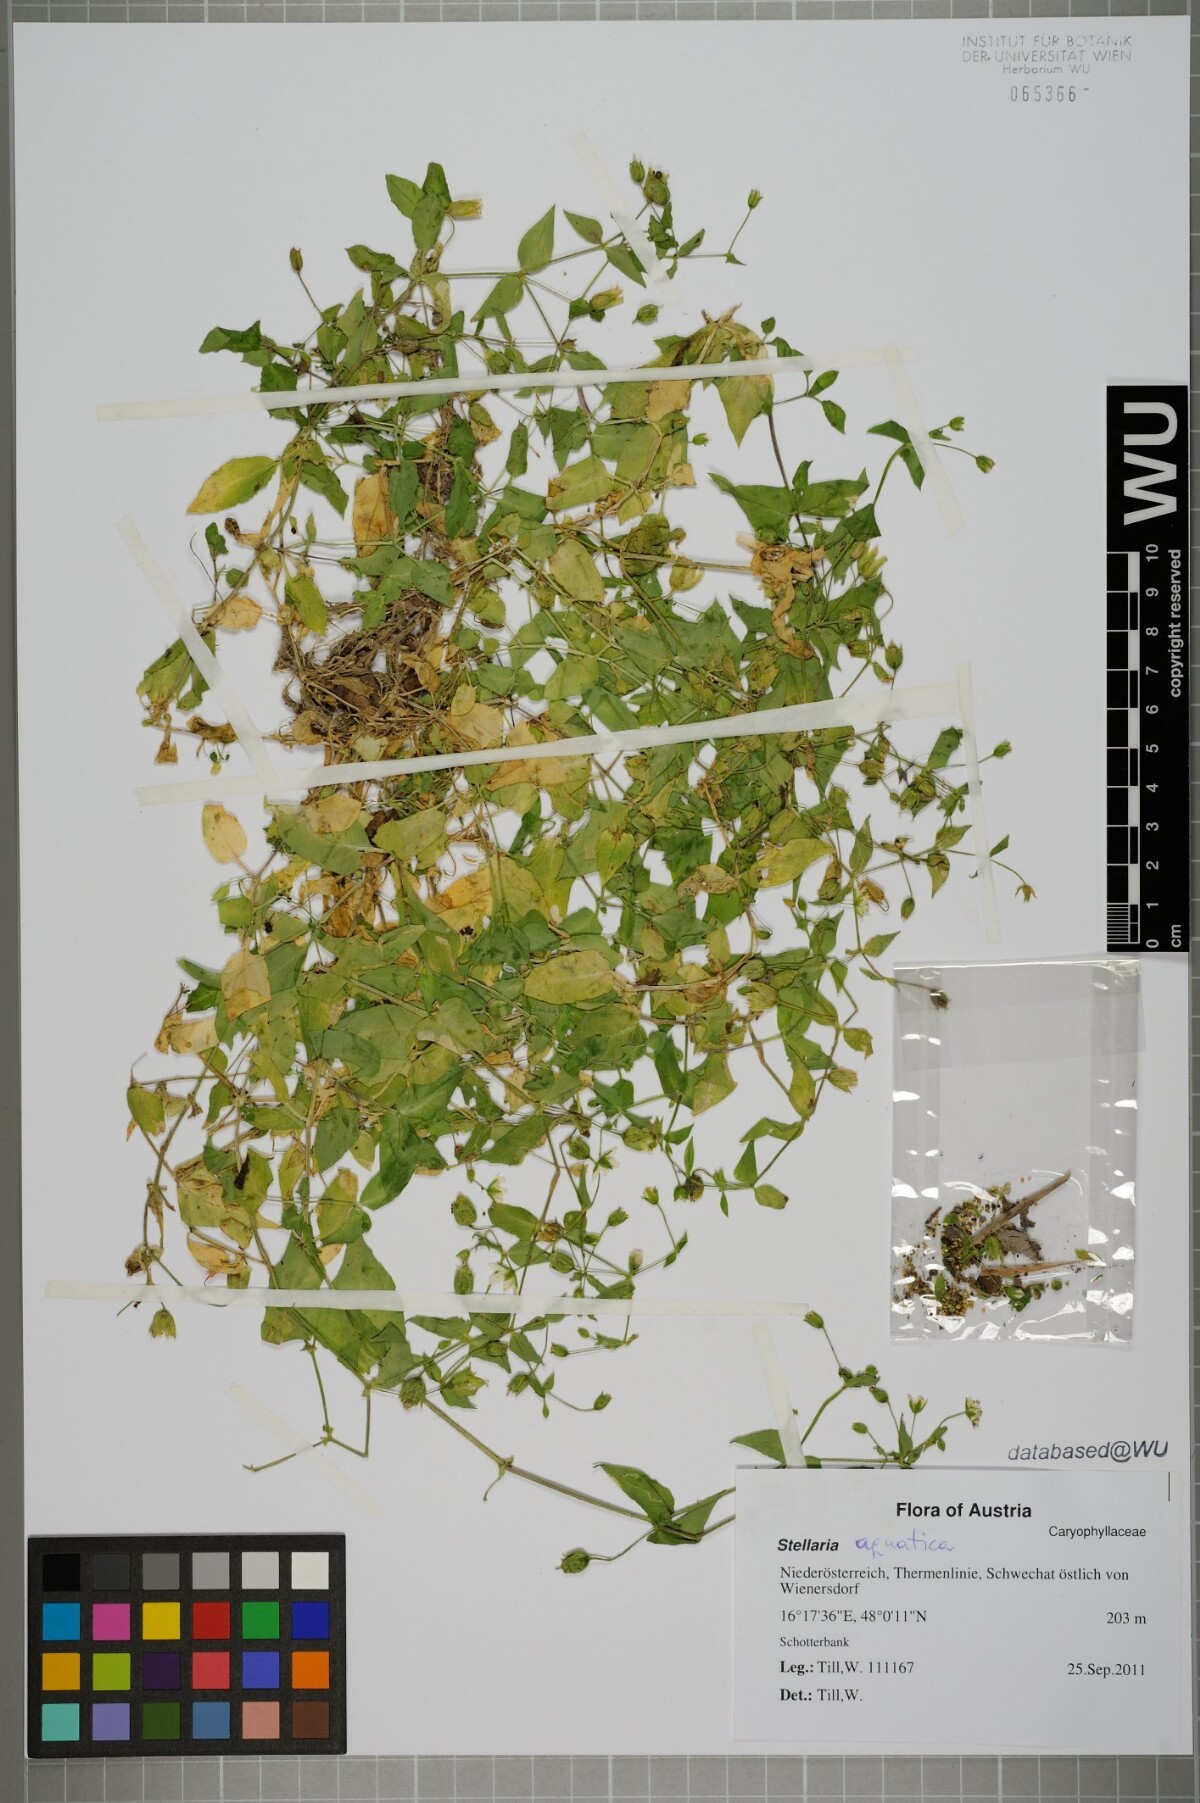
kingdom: Plantae
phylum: Tracheophyta
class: Magnoliopsida
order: Caryophyllales
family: Caryophyllaceae
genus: Stellaria
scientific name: Stellaria aquatica
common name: Water chickweed
